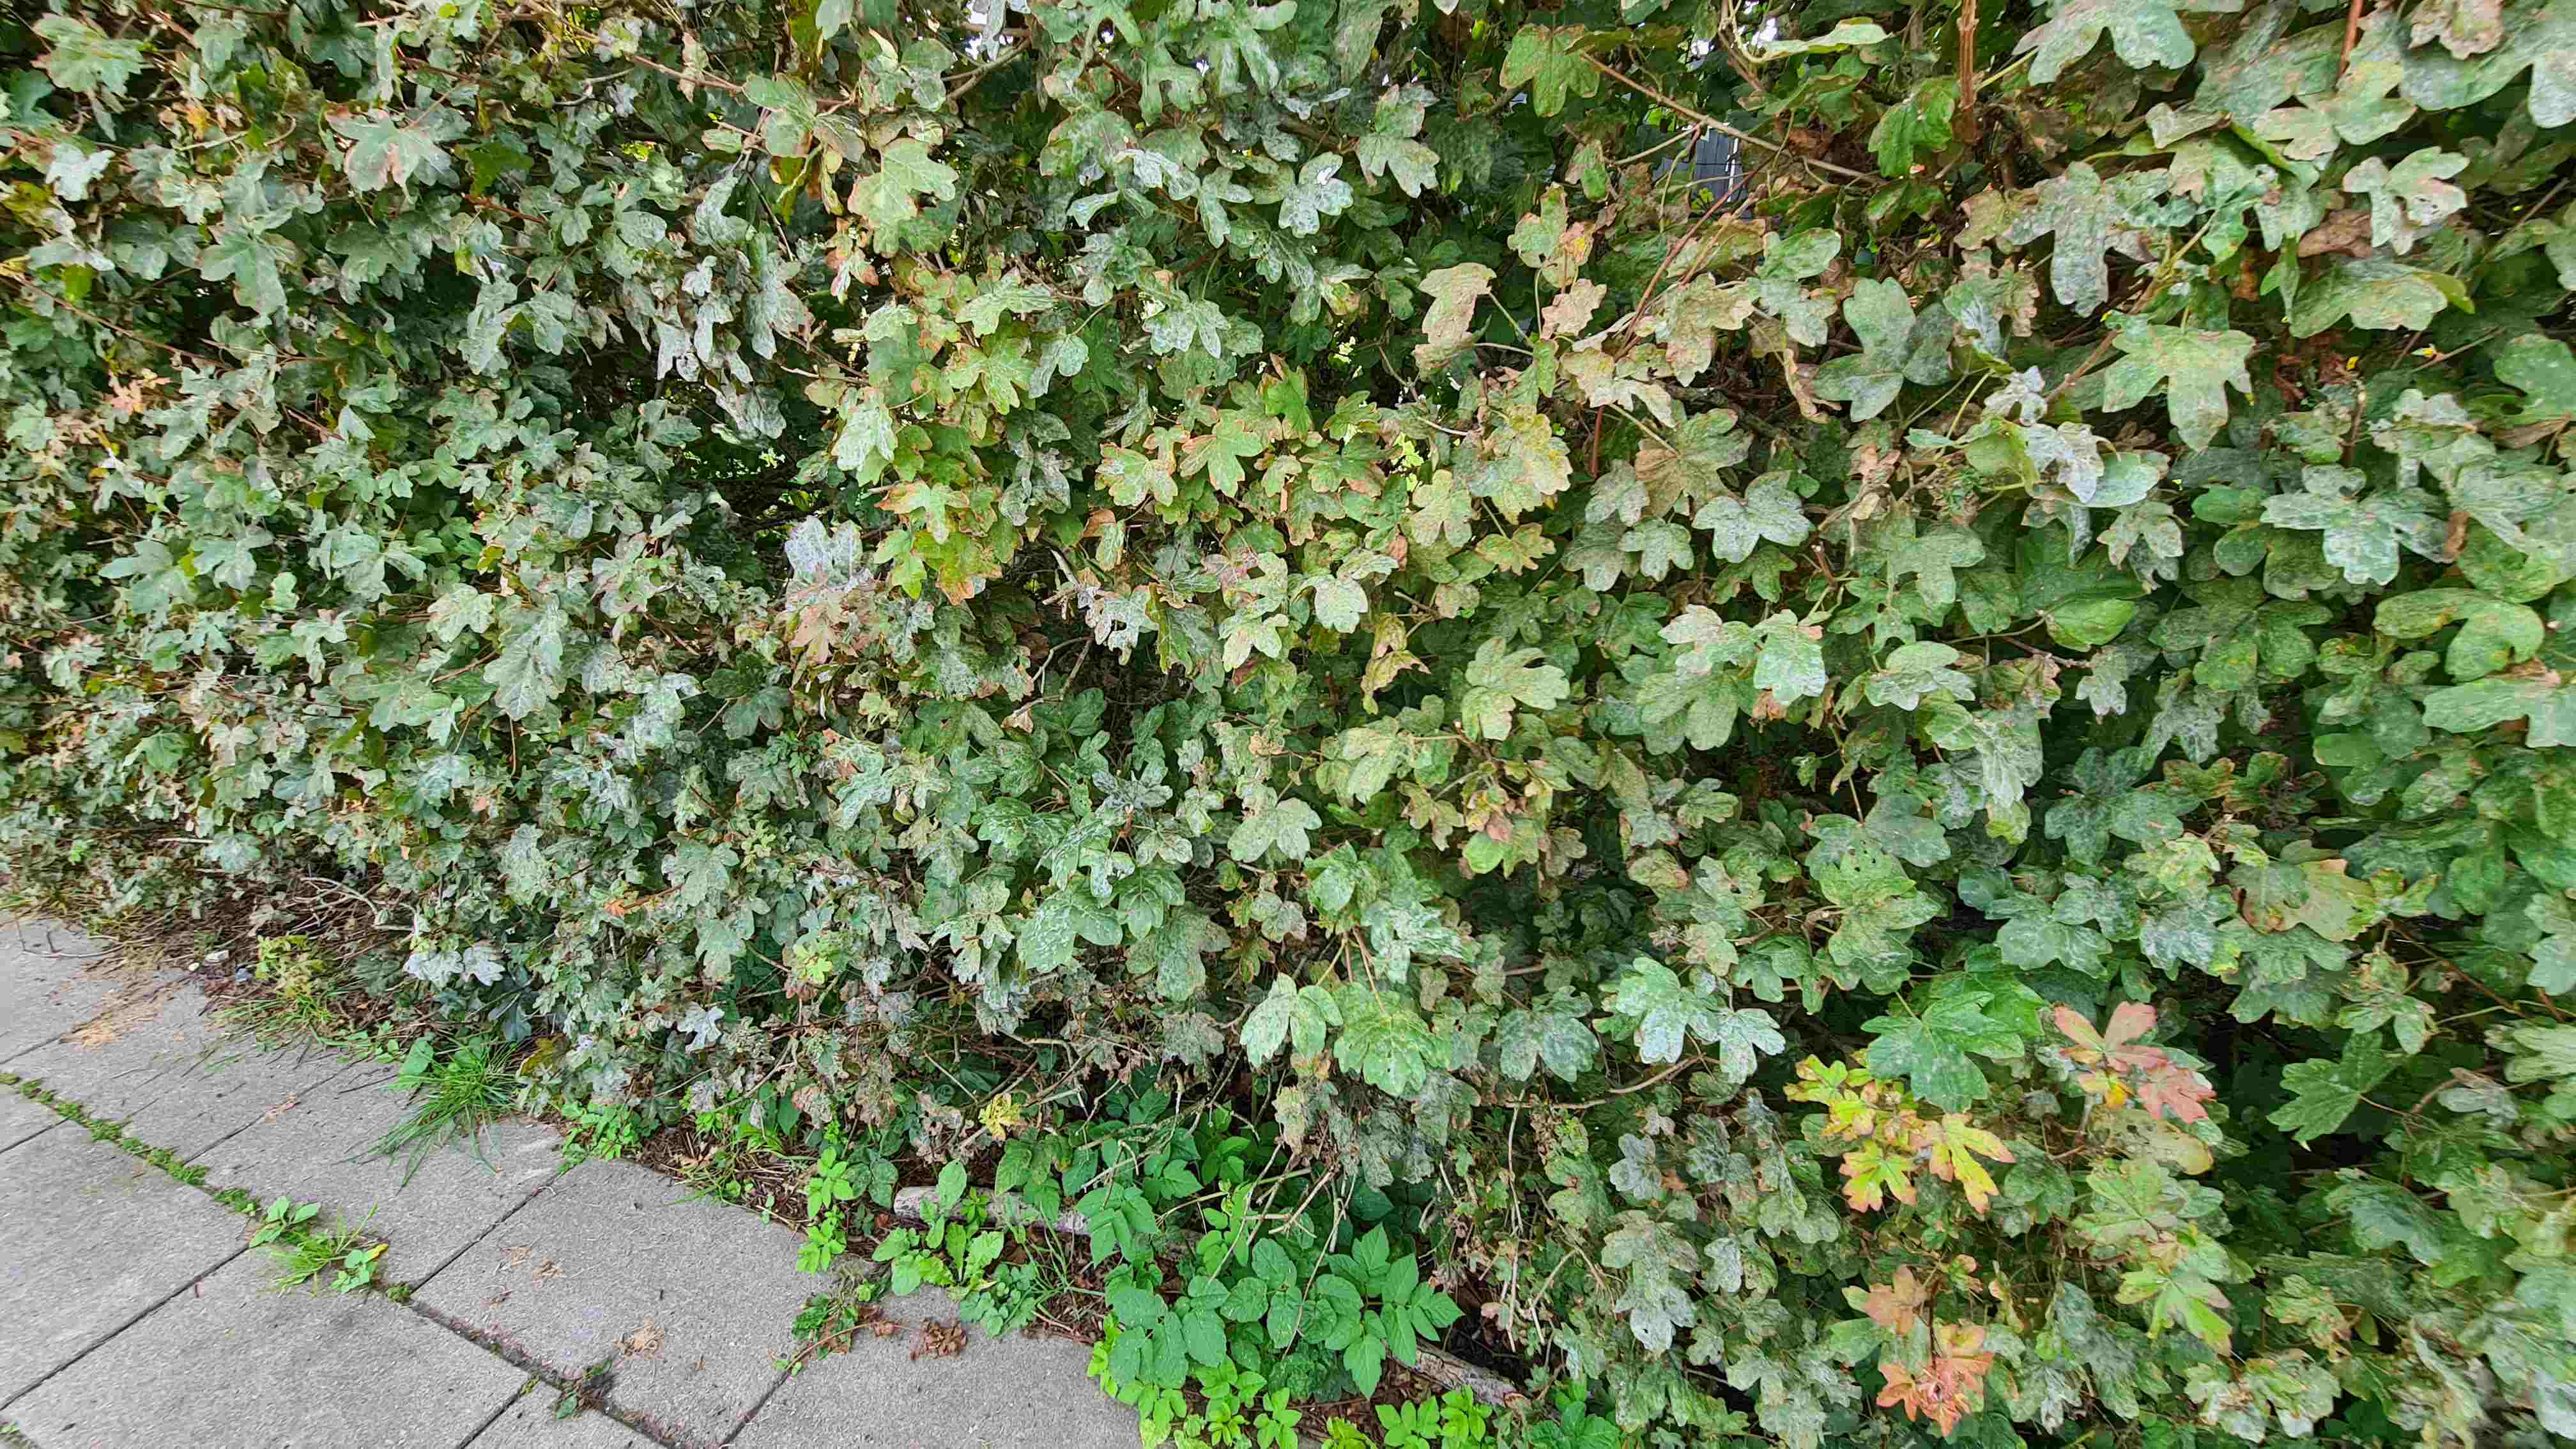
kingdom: Fungi
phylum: Ascomycota
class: Leotiomycetes
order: Helotiales
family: Erysiphaceae
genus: Sawadaea
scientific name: Sawadaea bicornis
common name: Maple mildew
